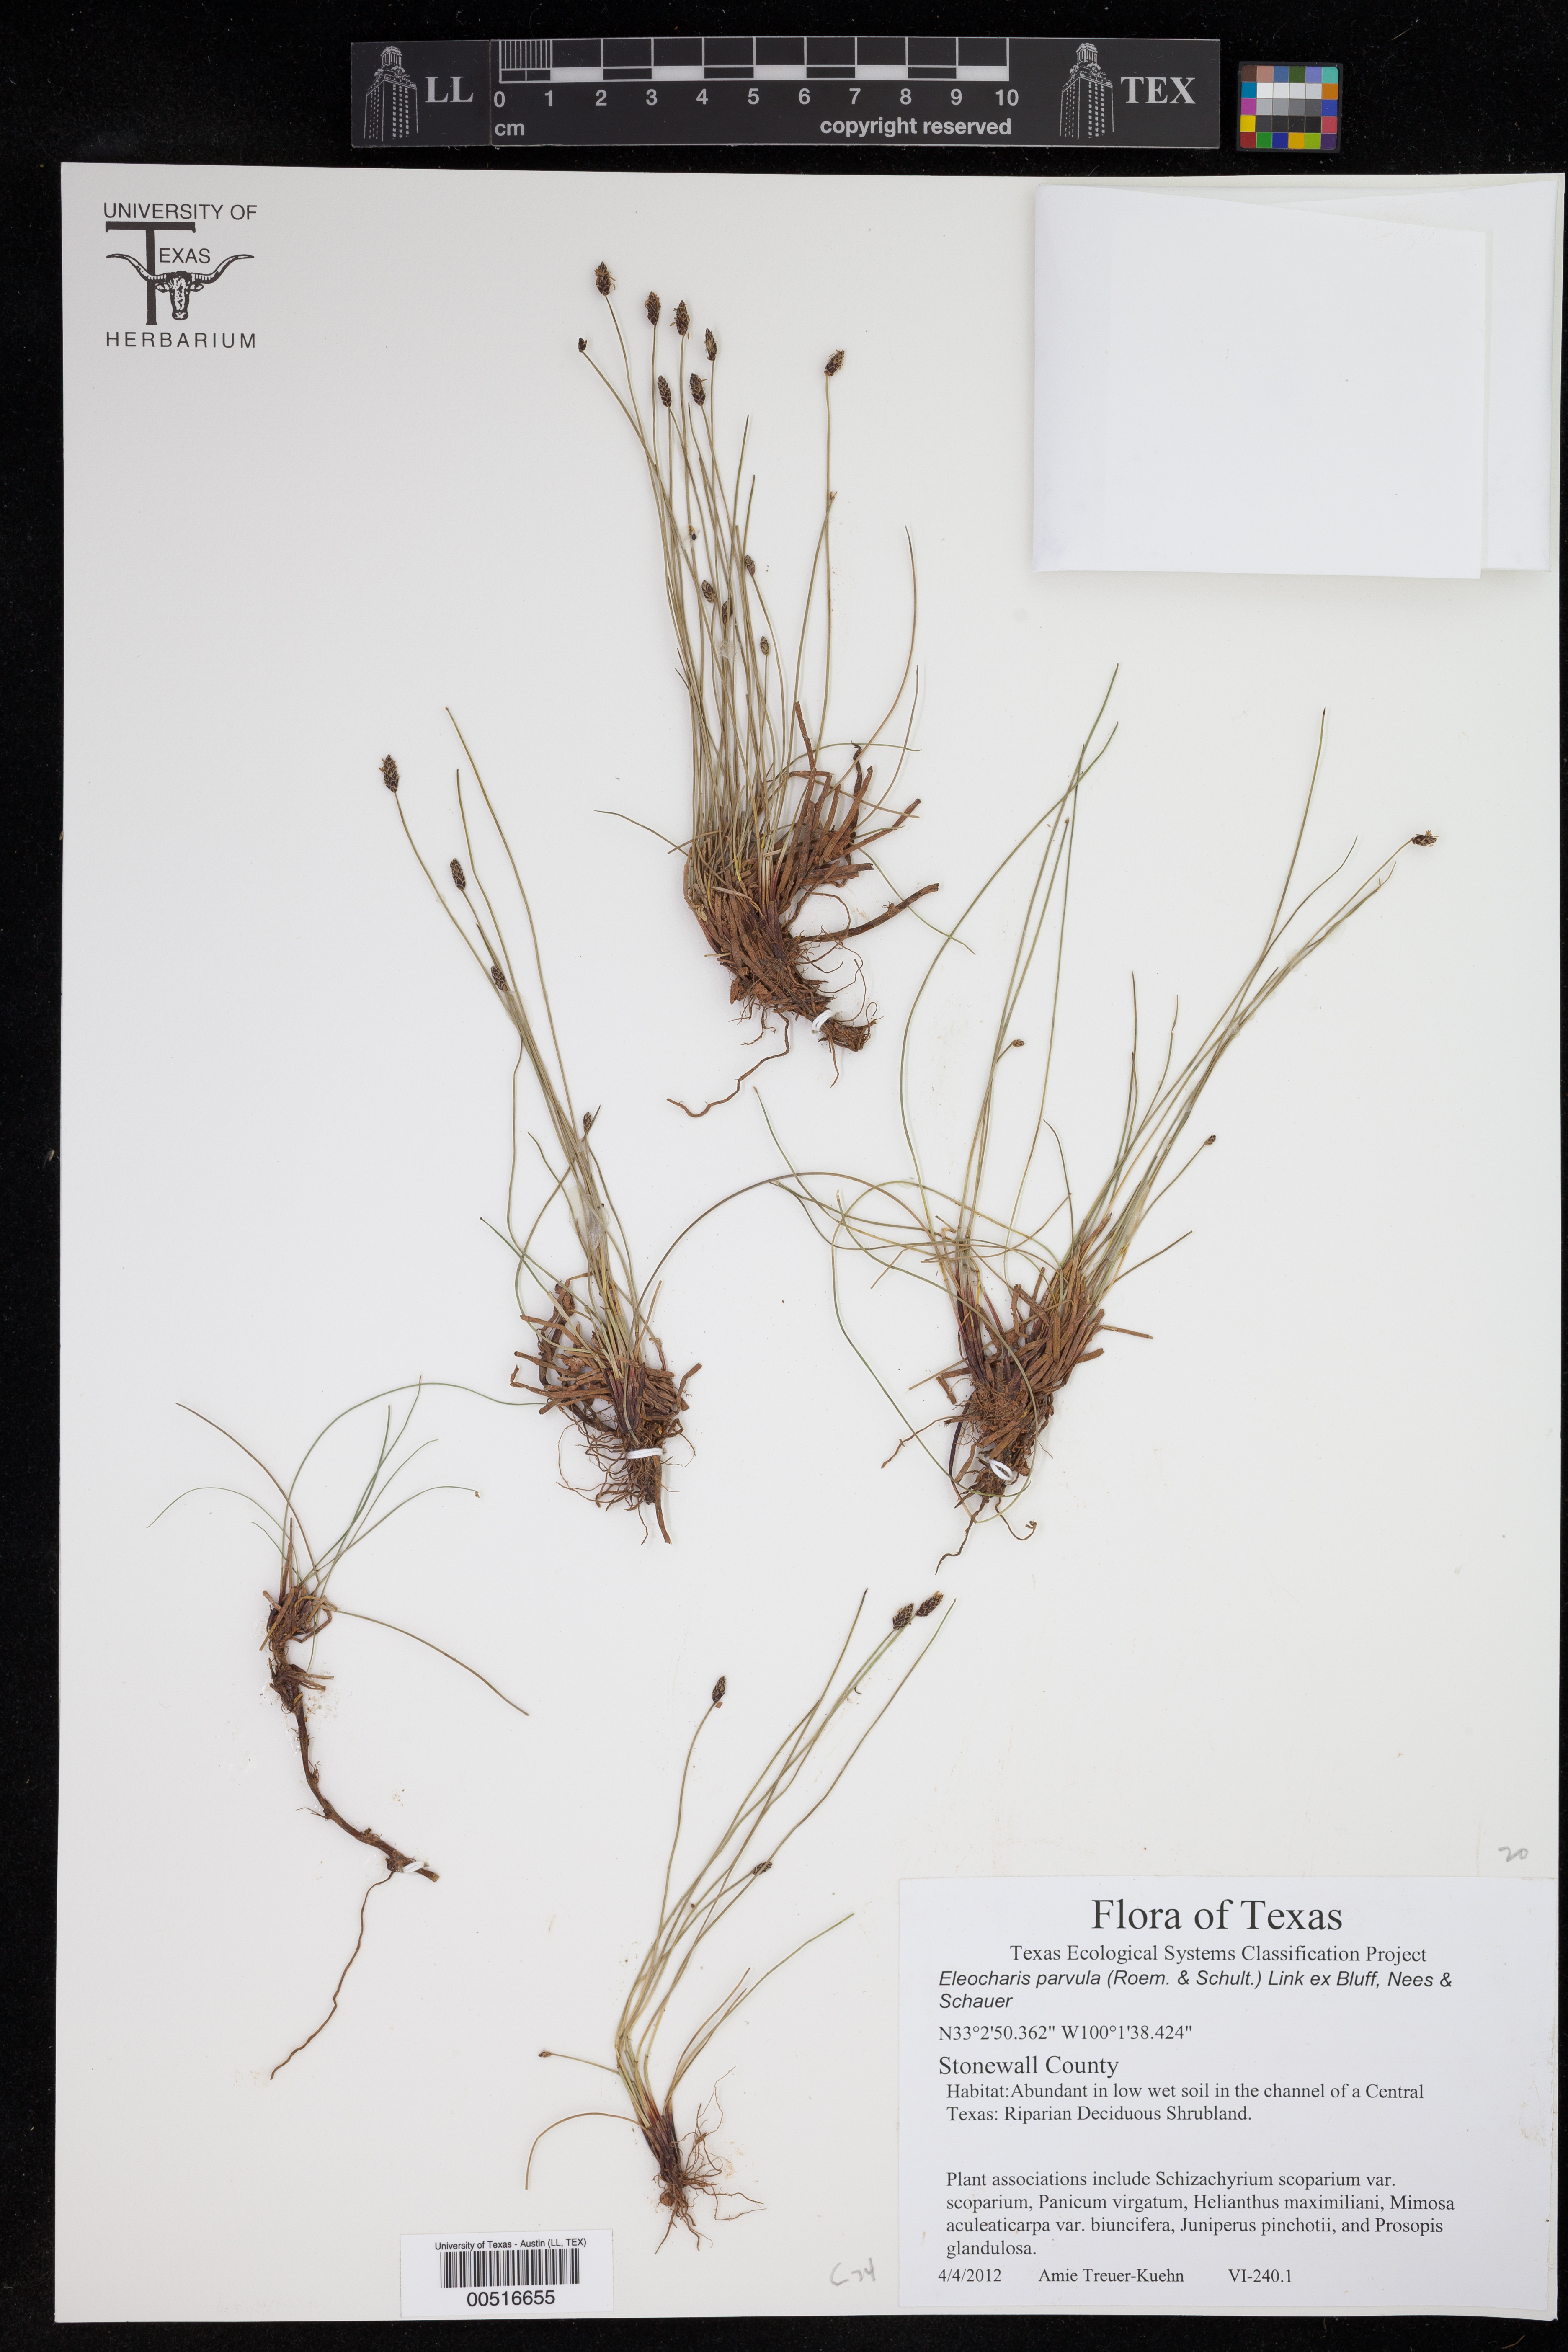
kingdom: Plantae
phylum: Tracheophyta
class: Liliopsida
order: Poales
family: Cyperaceae
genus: Eleocharis
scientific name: Eleocharis parvula
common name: Dwarf spike-rush
